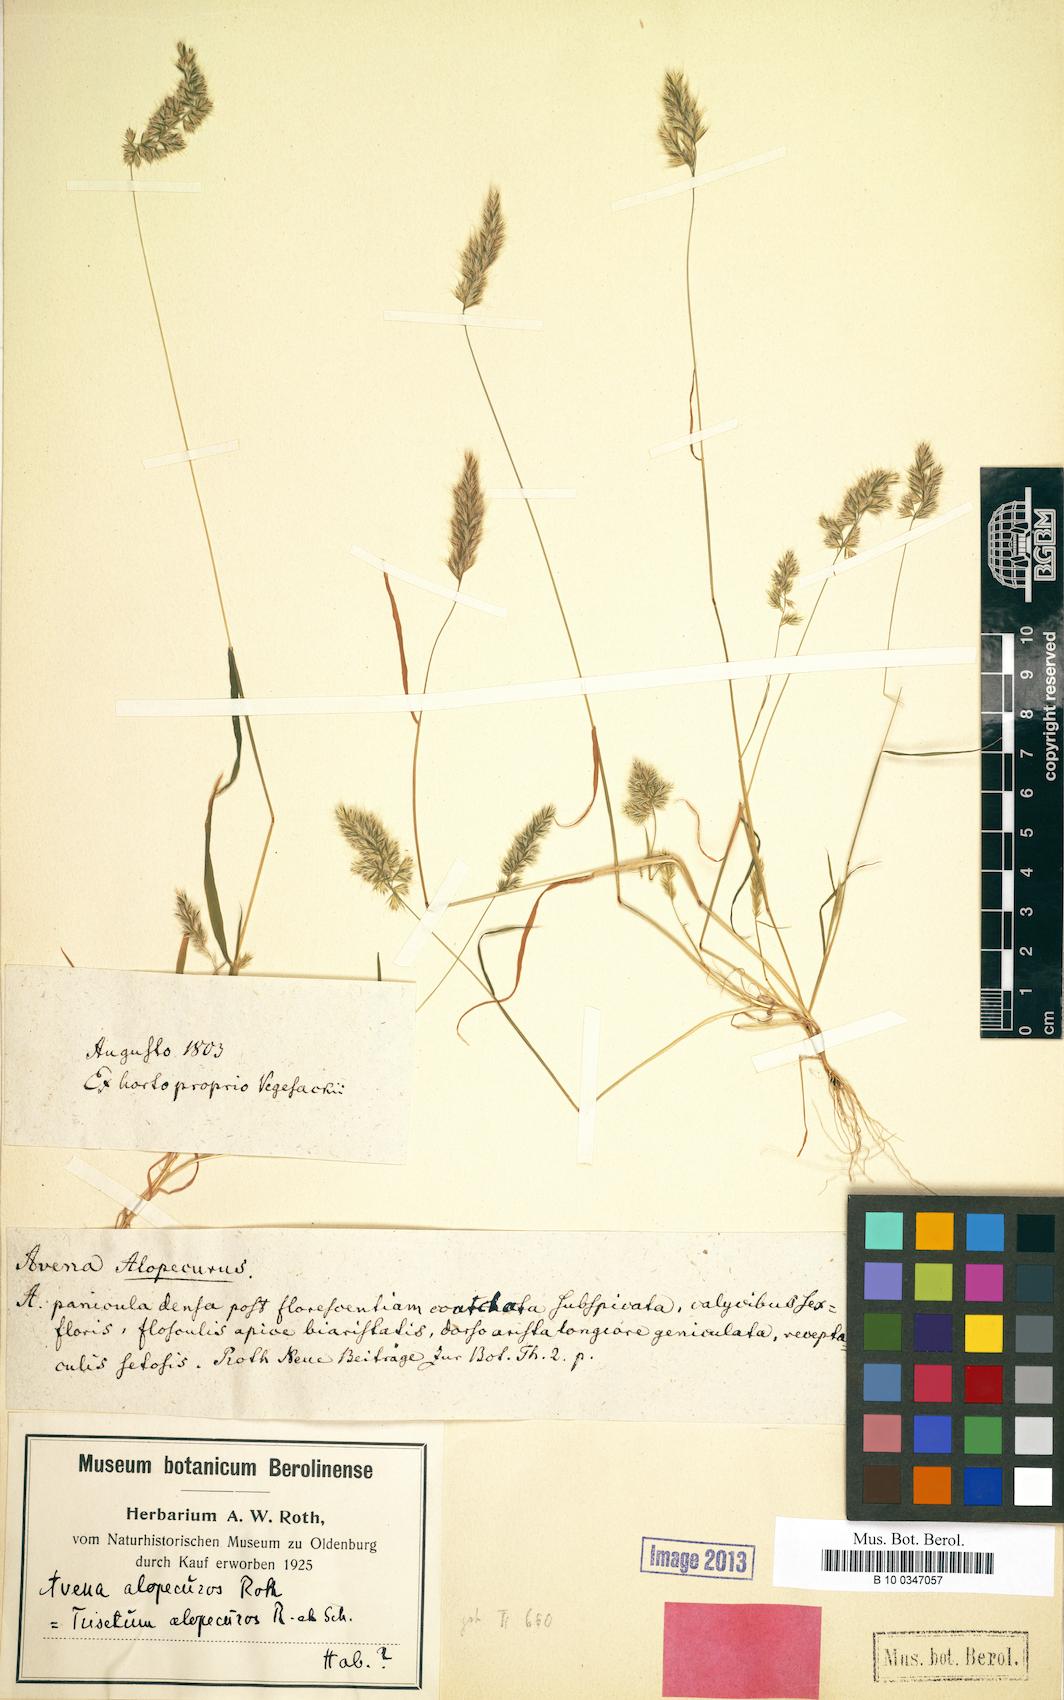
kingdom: Plantae
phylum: Tracheophyta
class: Liliopsida
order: Poales
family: Poaceae
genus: Avenula
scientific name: Avenula pubescens
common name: Downy alpine oatgrass
